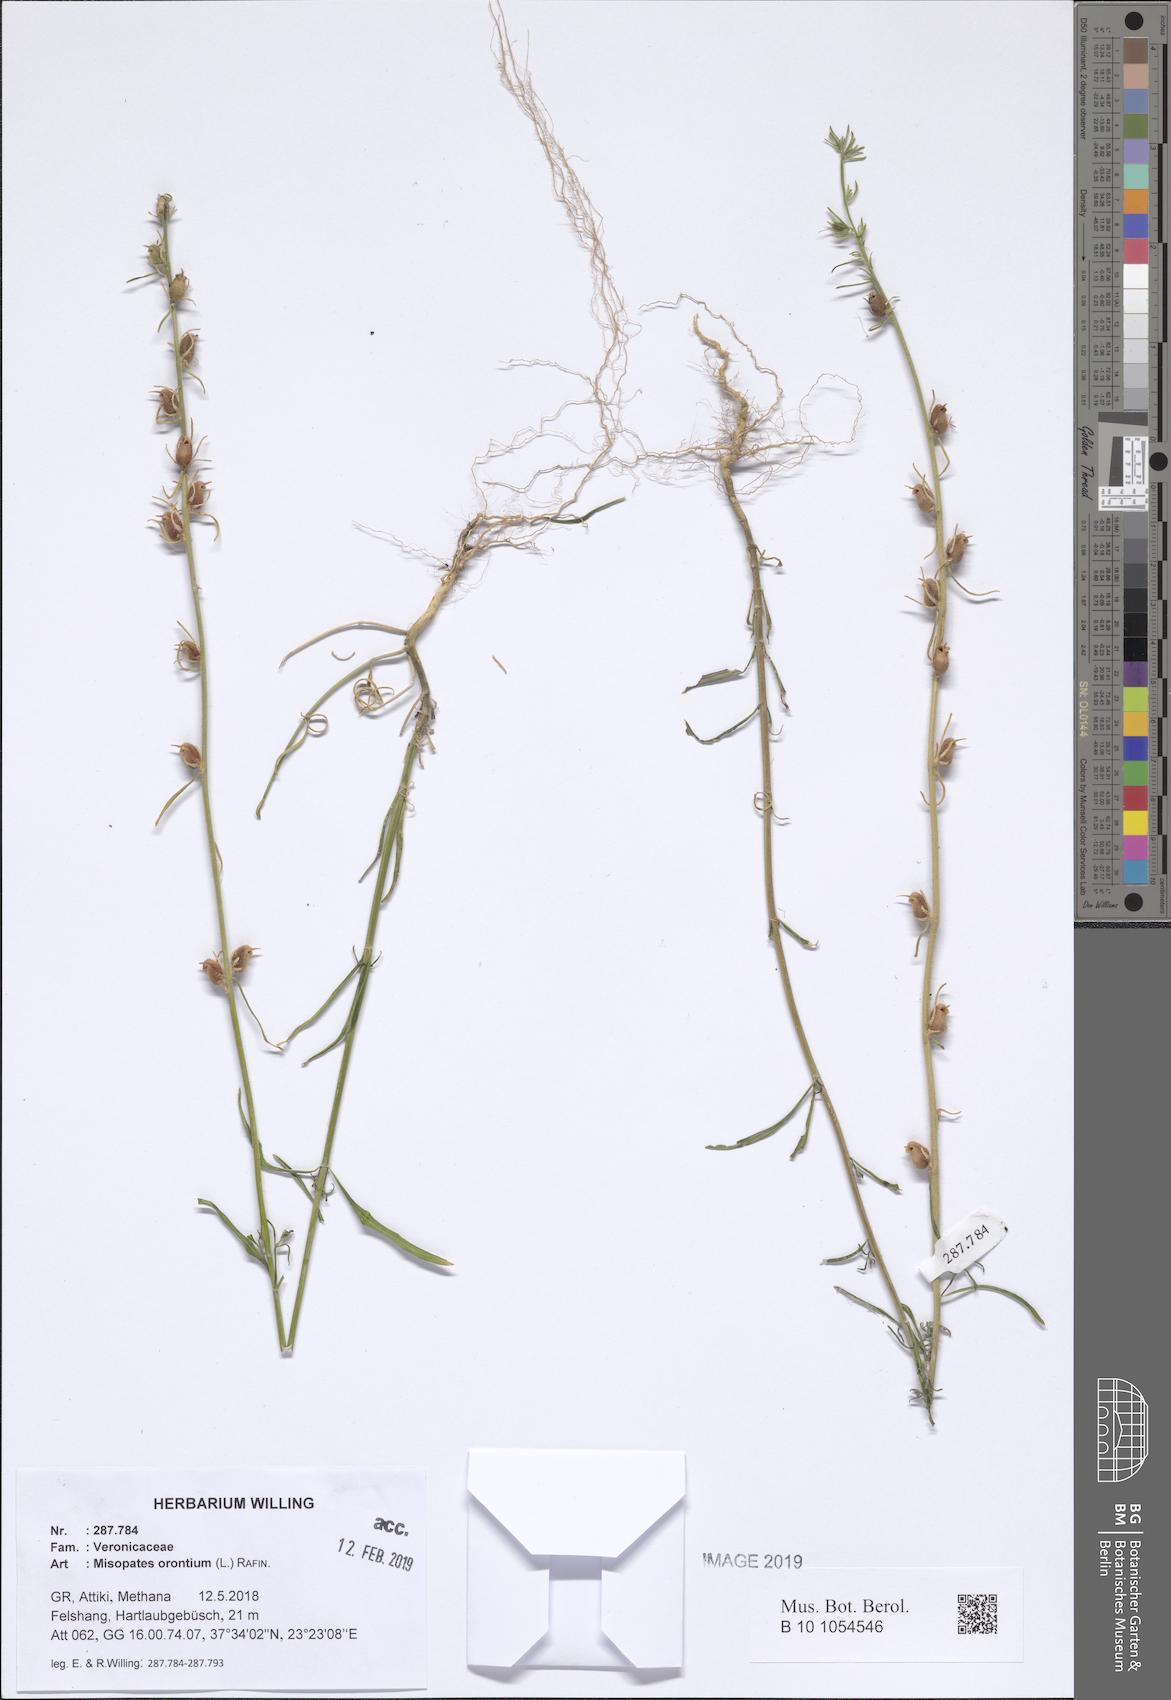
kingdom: Plantae
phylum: Tracheophyta
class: Magnoliopsida
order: Lamiales
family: Plantaginaceae
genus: Misopates
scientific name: Misopates orontium
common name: Weasel's-snout
